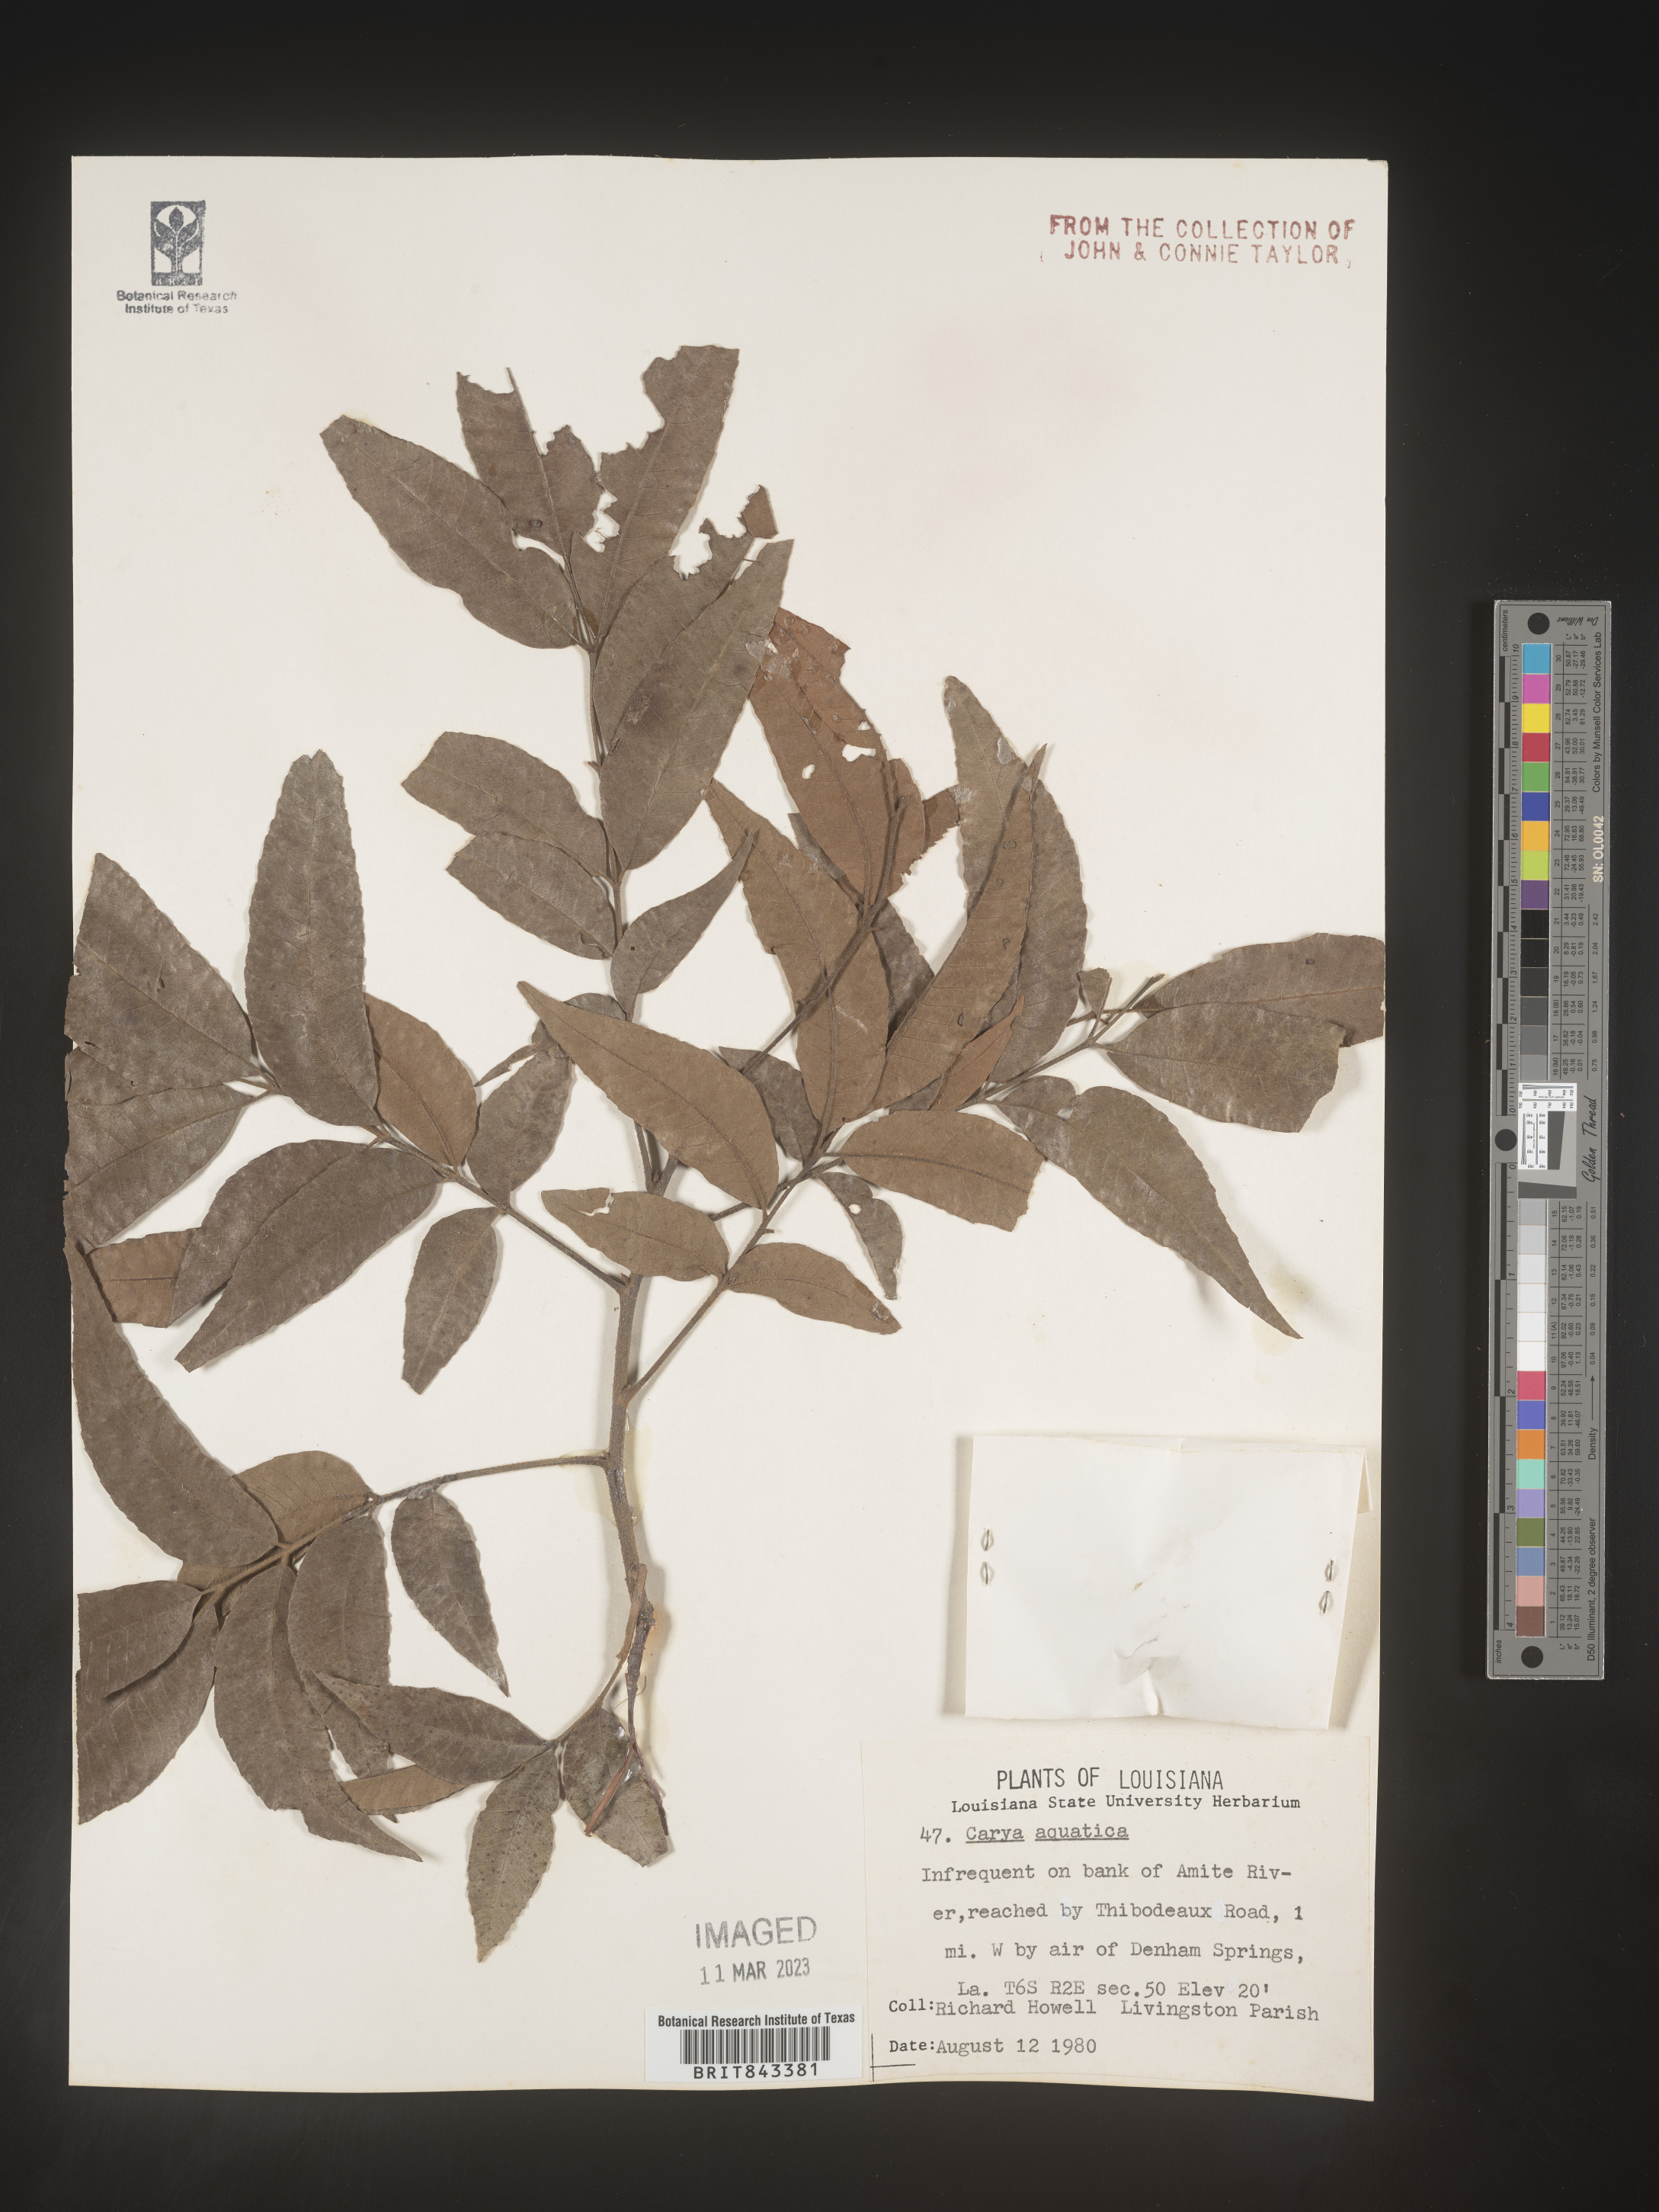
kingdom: Plantae
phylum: Tracheophyta
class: Magnoliopsida
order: Fagales
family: Juglandaceae
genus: Carya
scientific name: Carya aquatica
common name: Water hickory
